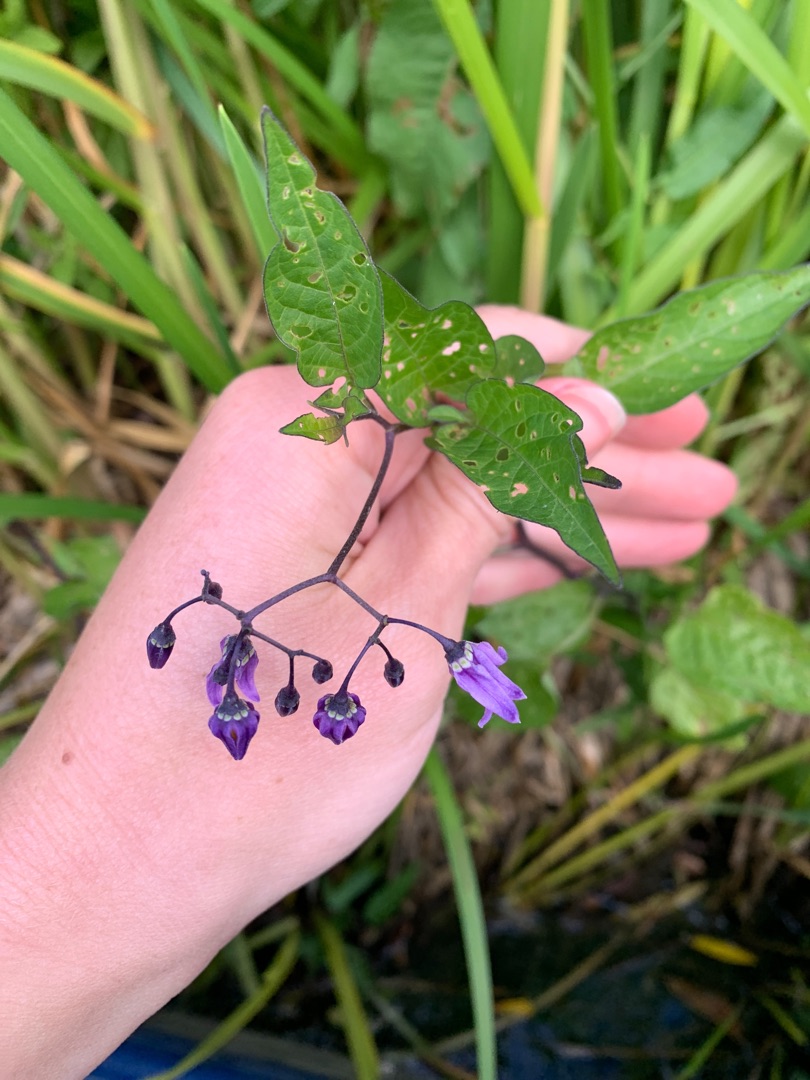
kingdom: Plantae
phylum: Tracheophyta
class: Magnoliopsida
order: Solanales
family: Solanaceae
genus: Solanum
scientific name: Solanum dulcamara
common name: Bittersød natskygge
